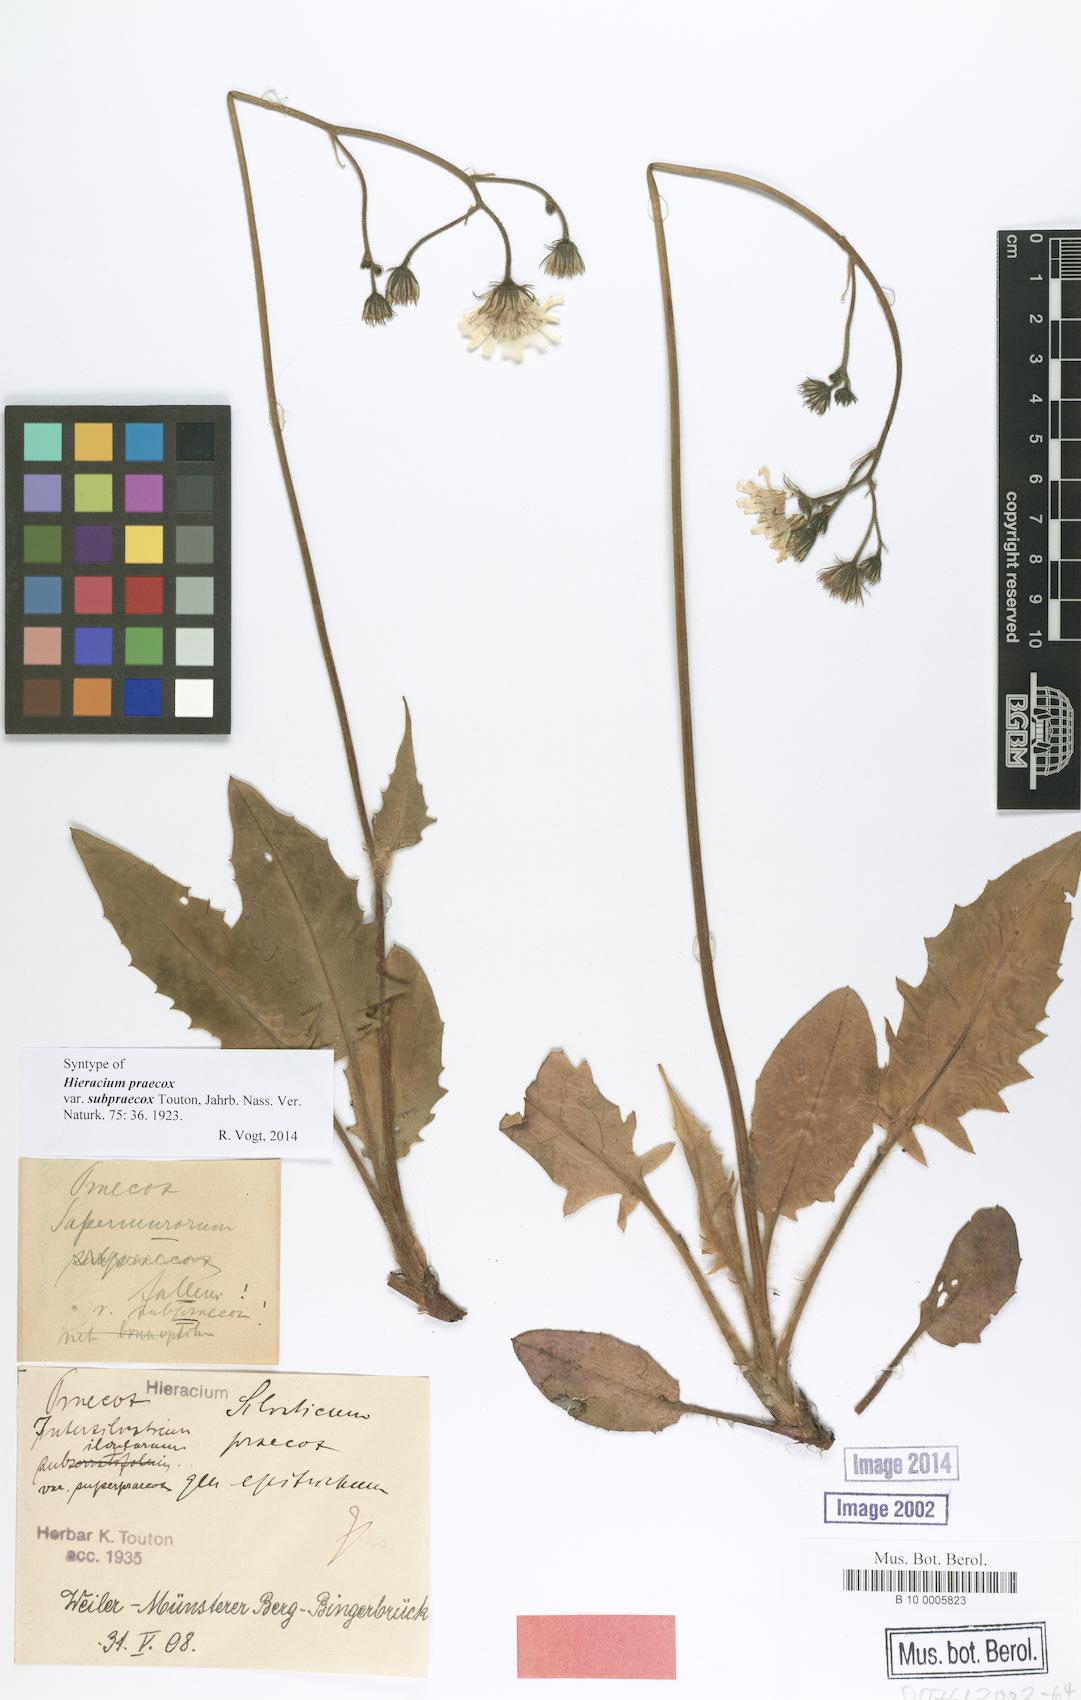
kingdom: Plantae
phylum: Tracheophyta
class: Magnoliopsida
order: Asterales
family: Asteraceae
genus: Hieracium
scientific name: Hieracium praecox
